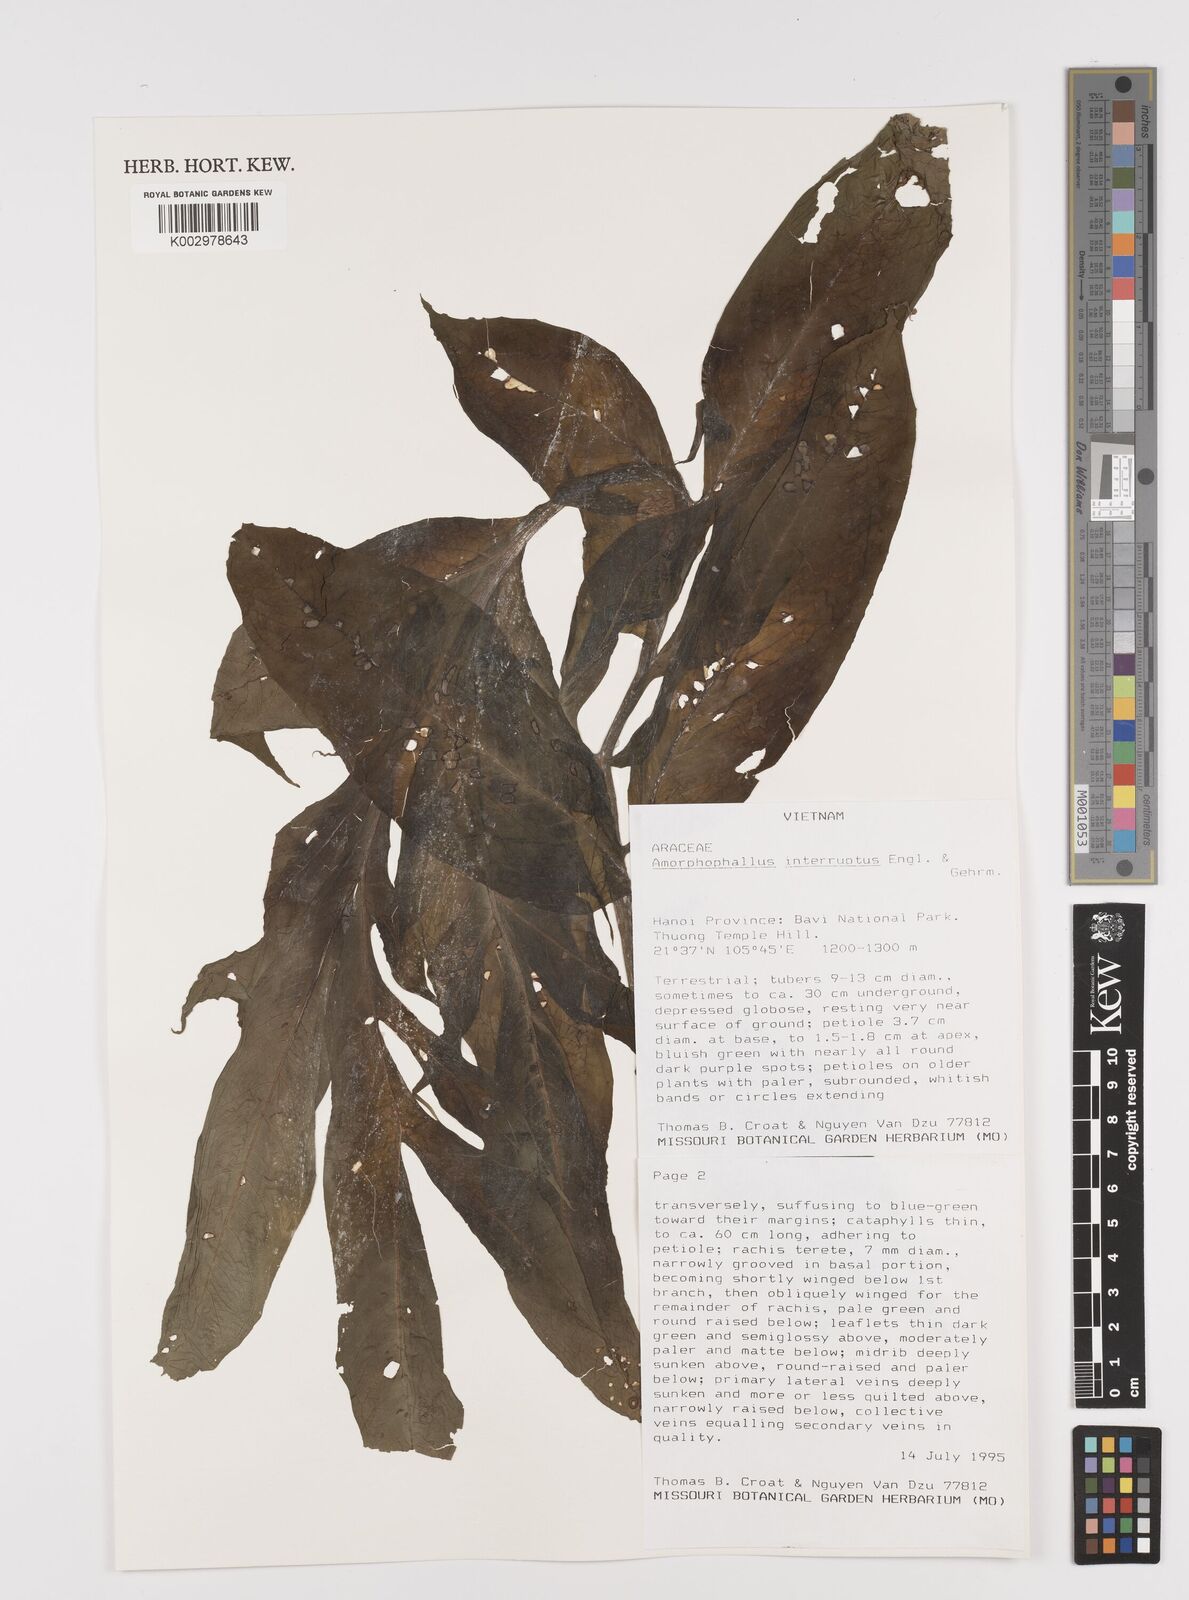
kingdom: Plantae
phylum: Tracheophyta
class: Liliopsida
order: Alismatales
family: Araceae
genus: Amorphophallus
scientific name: Amorphophallus interruptus
